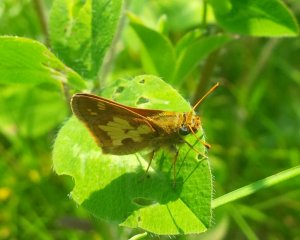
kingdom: Animalia
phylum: Arthropoda
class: Insecta
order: Lepidoptera
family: Hesperiidae
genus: Polites
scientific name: Polites coras
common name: Peck's Skipper
